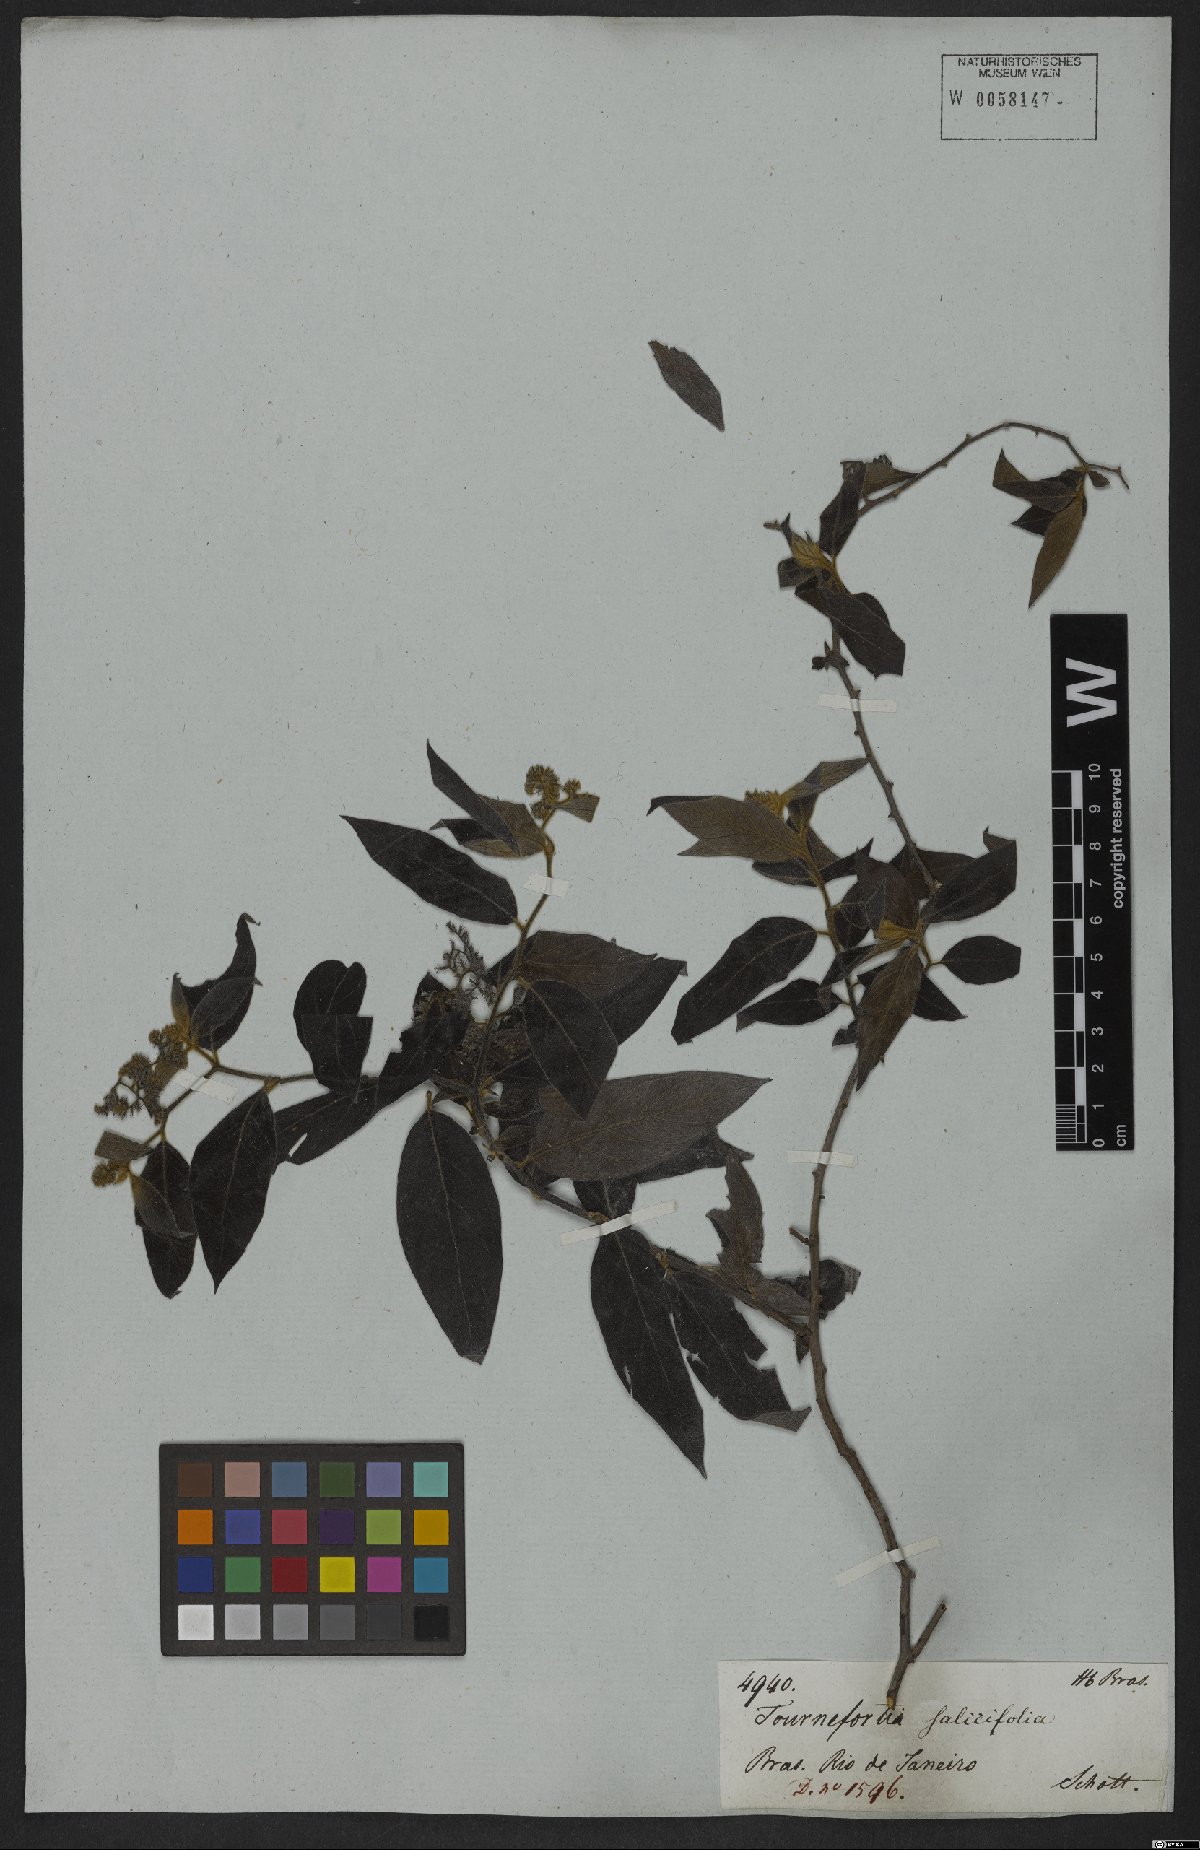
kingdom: Plantae
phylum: Tracheophyta
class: Magnoliopsida
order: Boraginales
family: Heliotropiaceae
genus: Myriopus
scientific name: Myriopus salicifolius
